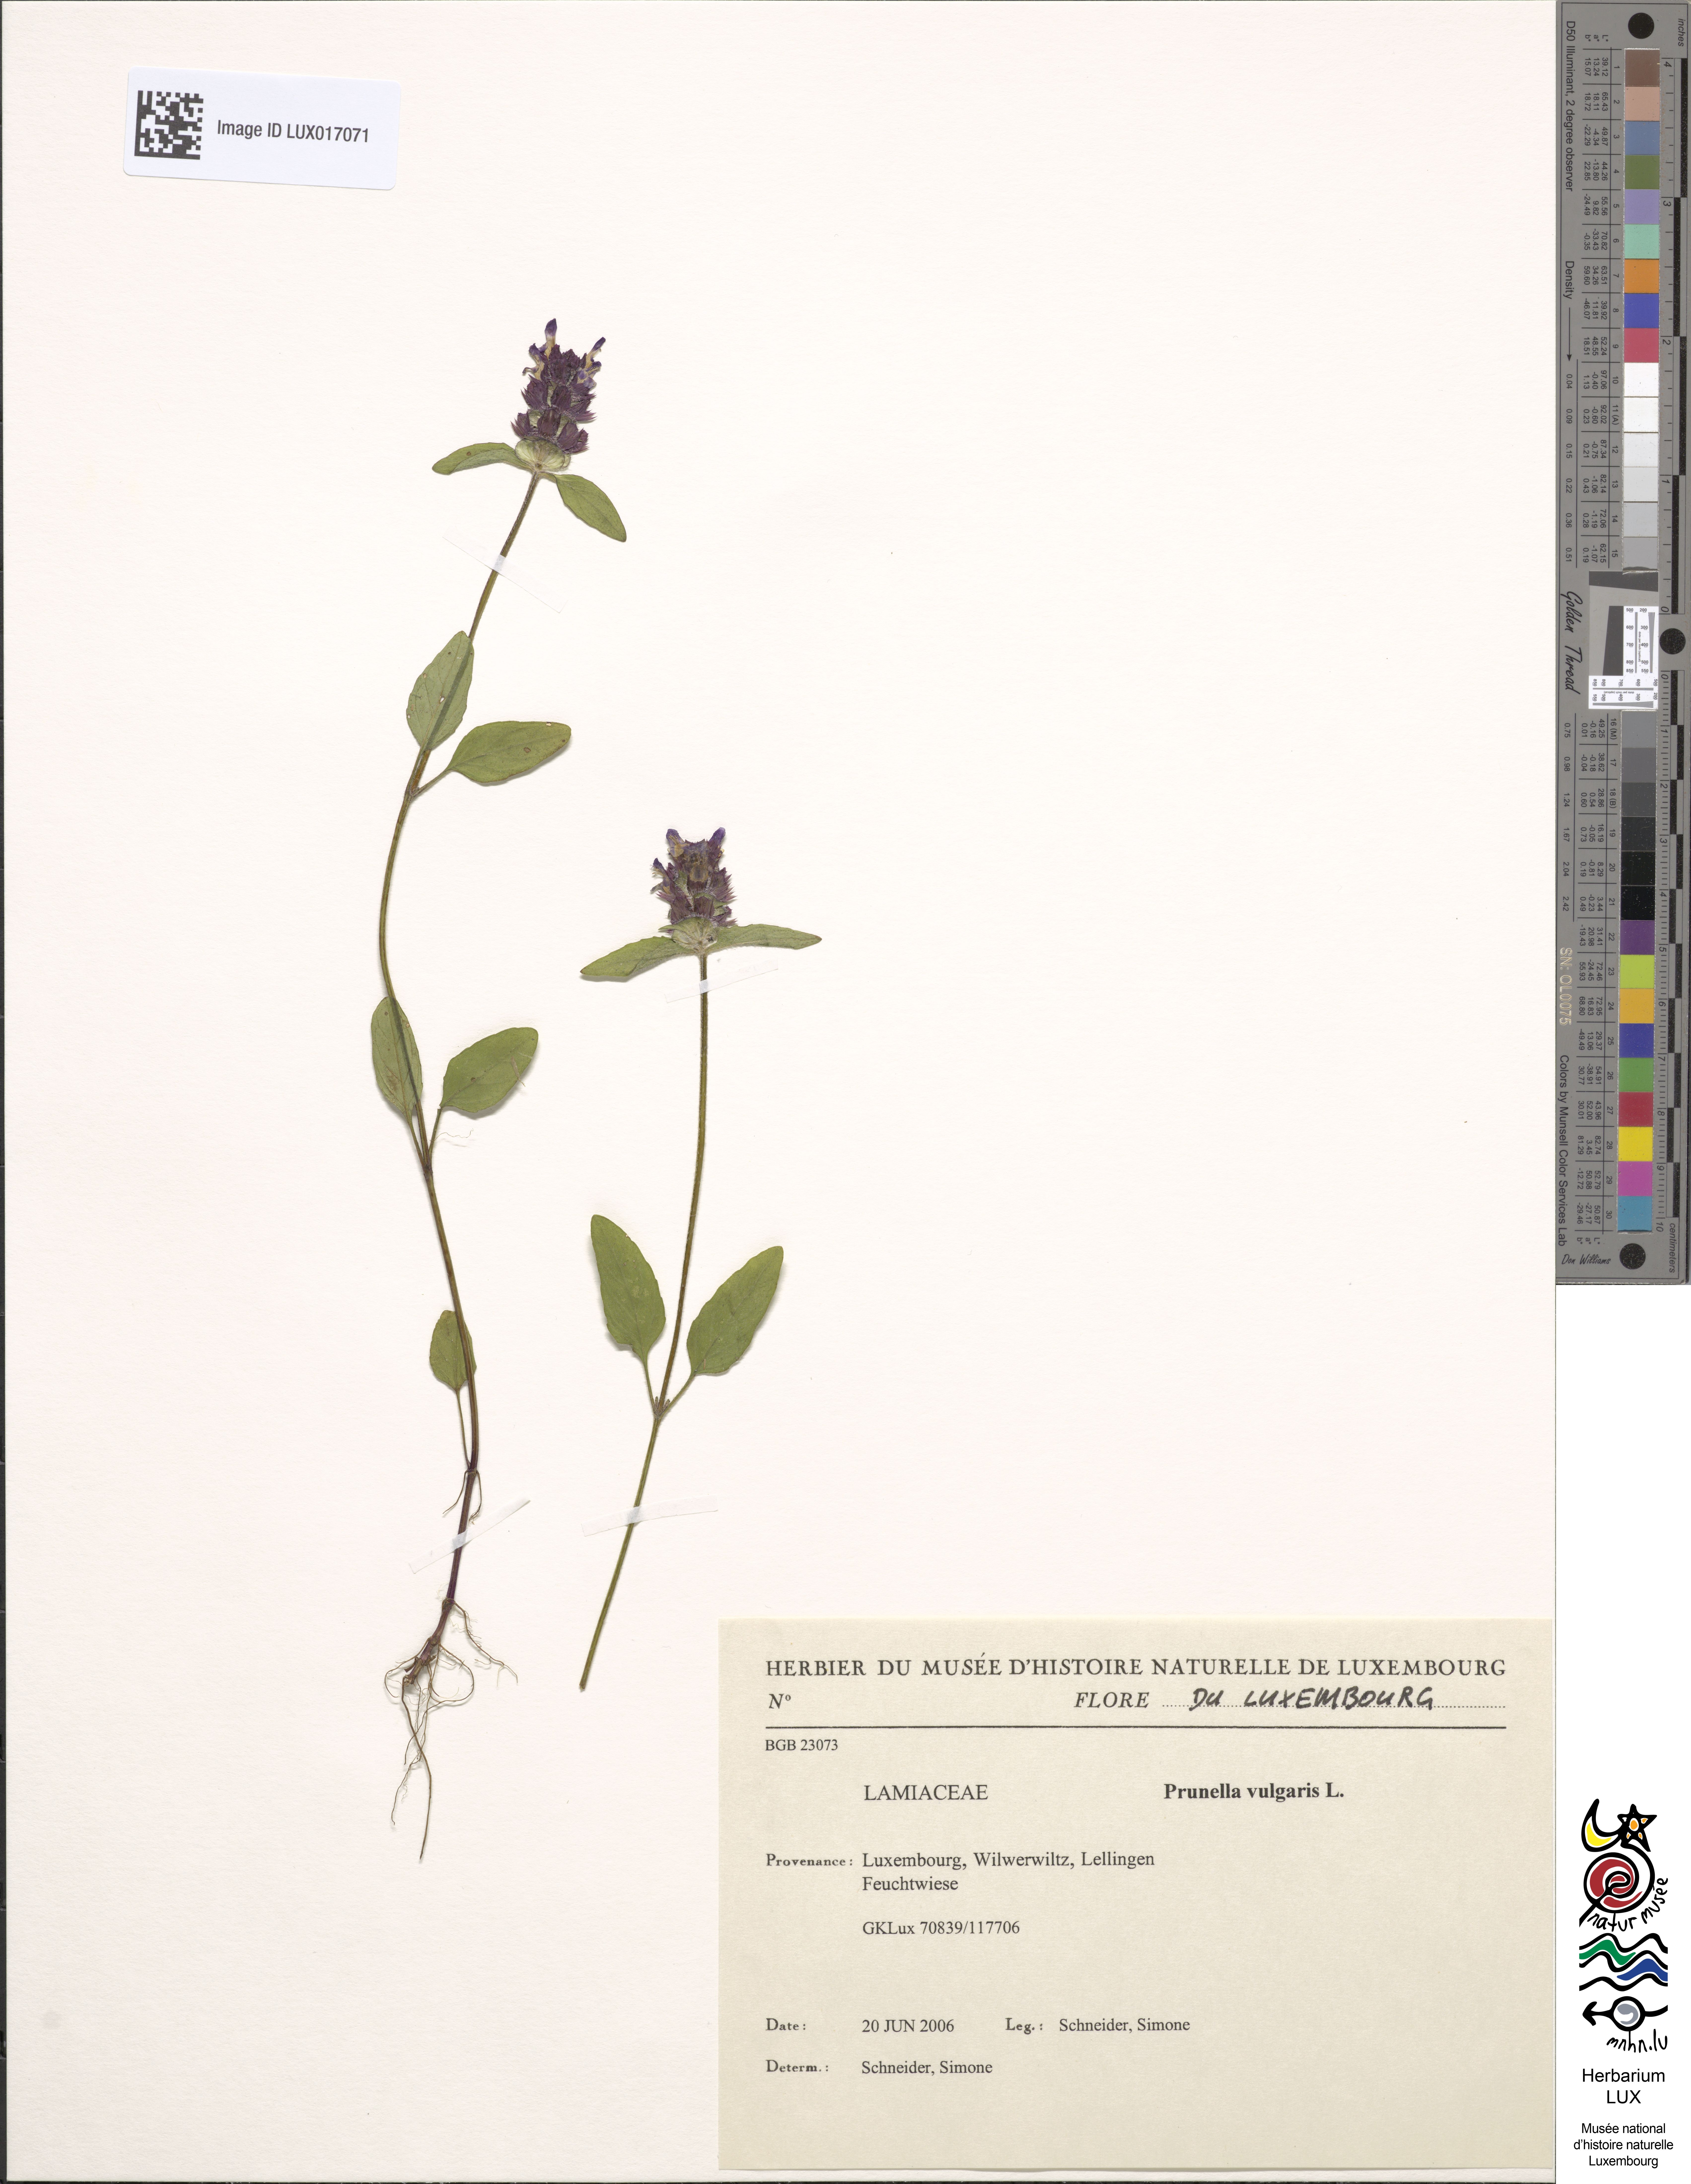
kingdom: Plantae
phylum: Tracheophyta
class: Magnoliopsida
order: Lamiales
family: Lamiaceae
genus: Prunella
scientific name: Prunella vulgaris
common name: Heal-all
